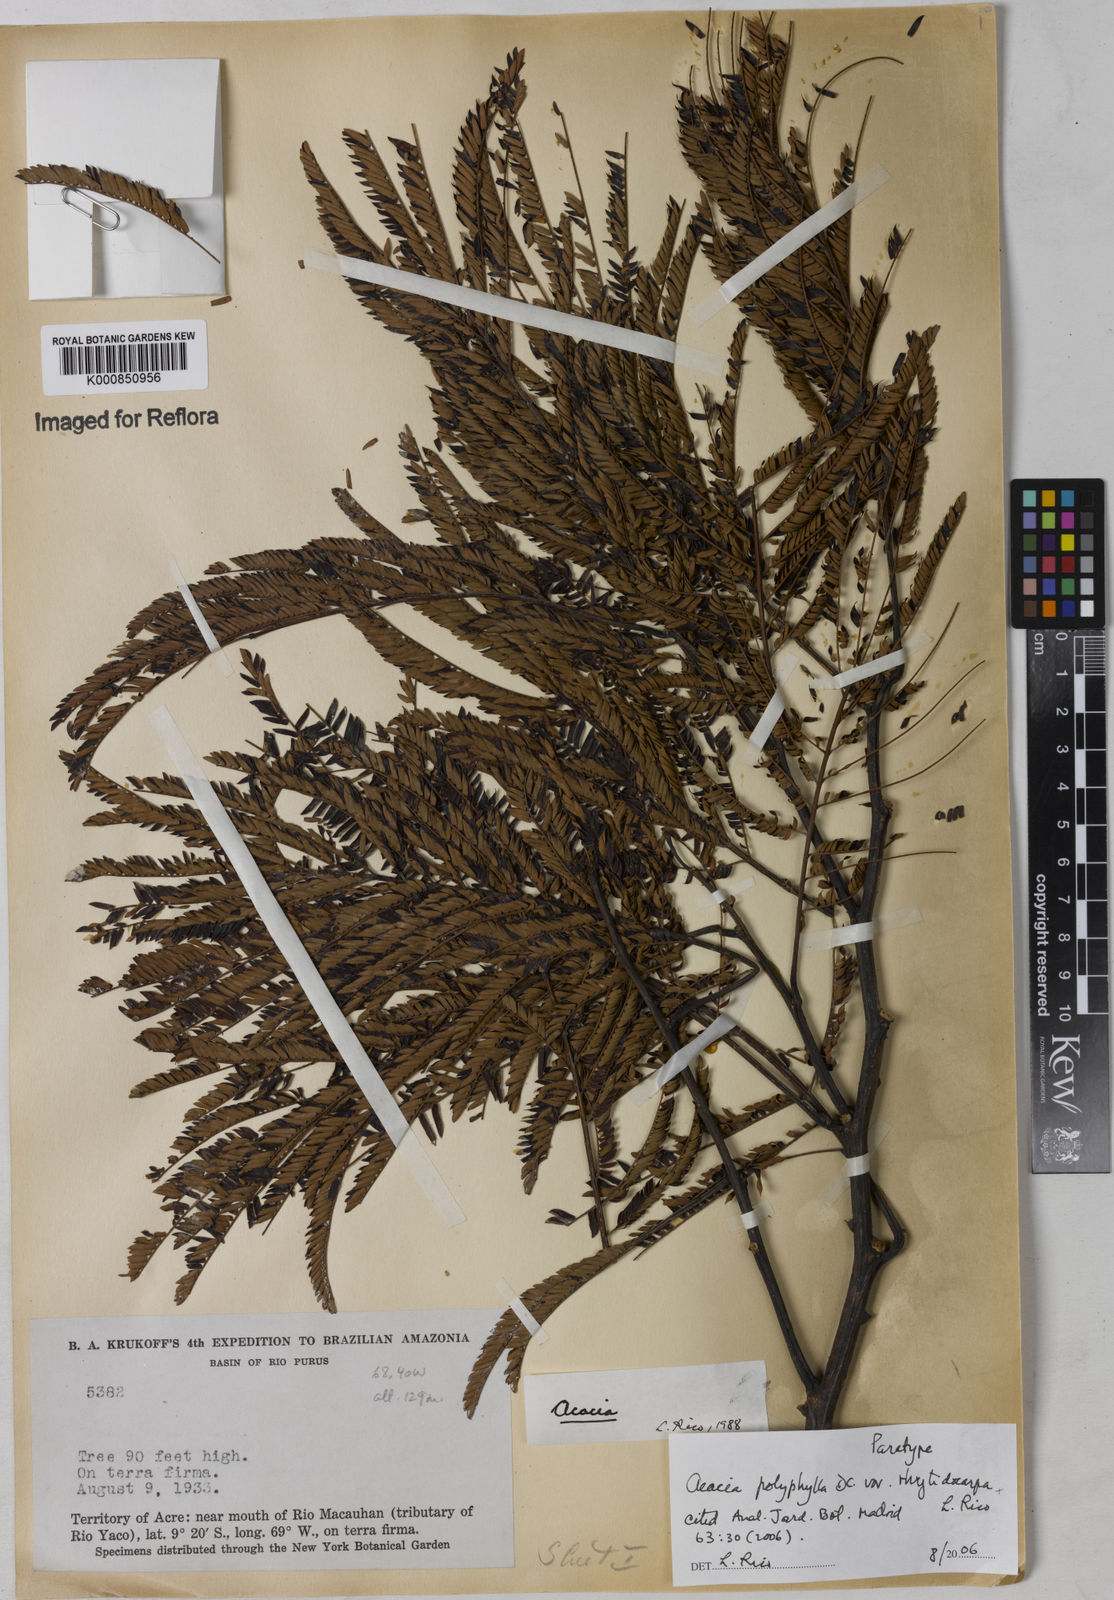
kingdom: Plantae
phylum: Tracheophyta
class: Magnoliopsida
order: Fabales
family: Fabaceae
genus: Senegalia
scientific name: Senegalia rhytidocarpa
